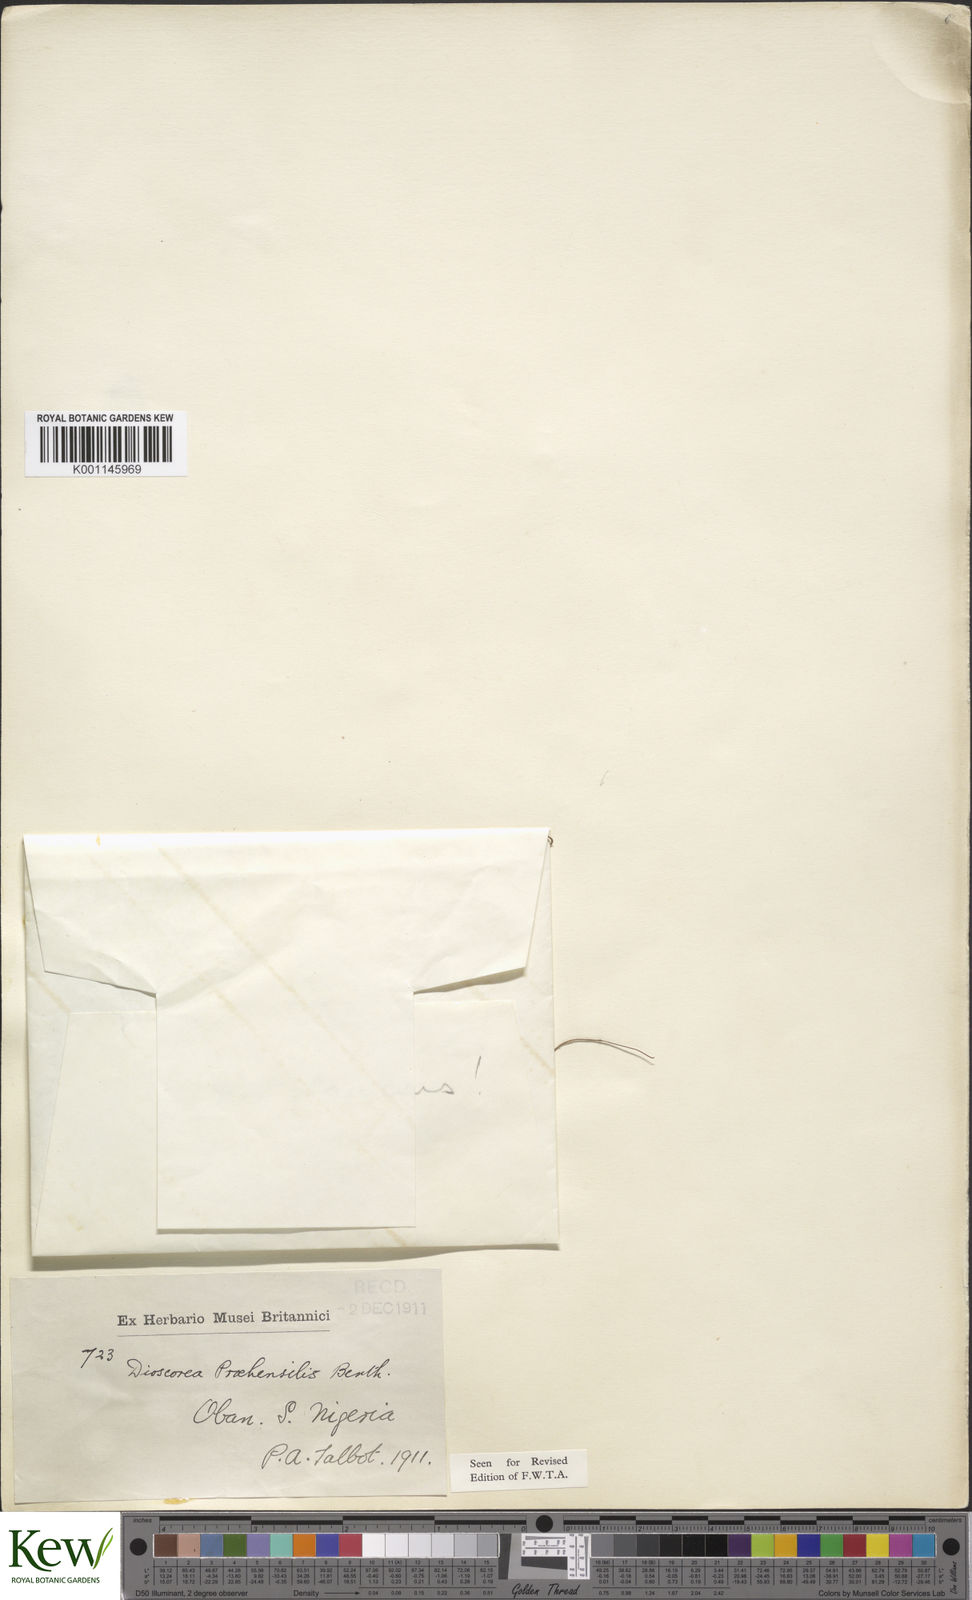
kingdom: Plantae
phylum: Tracheophyta
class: Liliopsida
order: Dioscoreales
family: Dioscoreaceae
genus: Dioscorea
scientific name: Dioscorea
